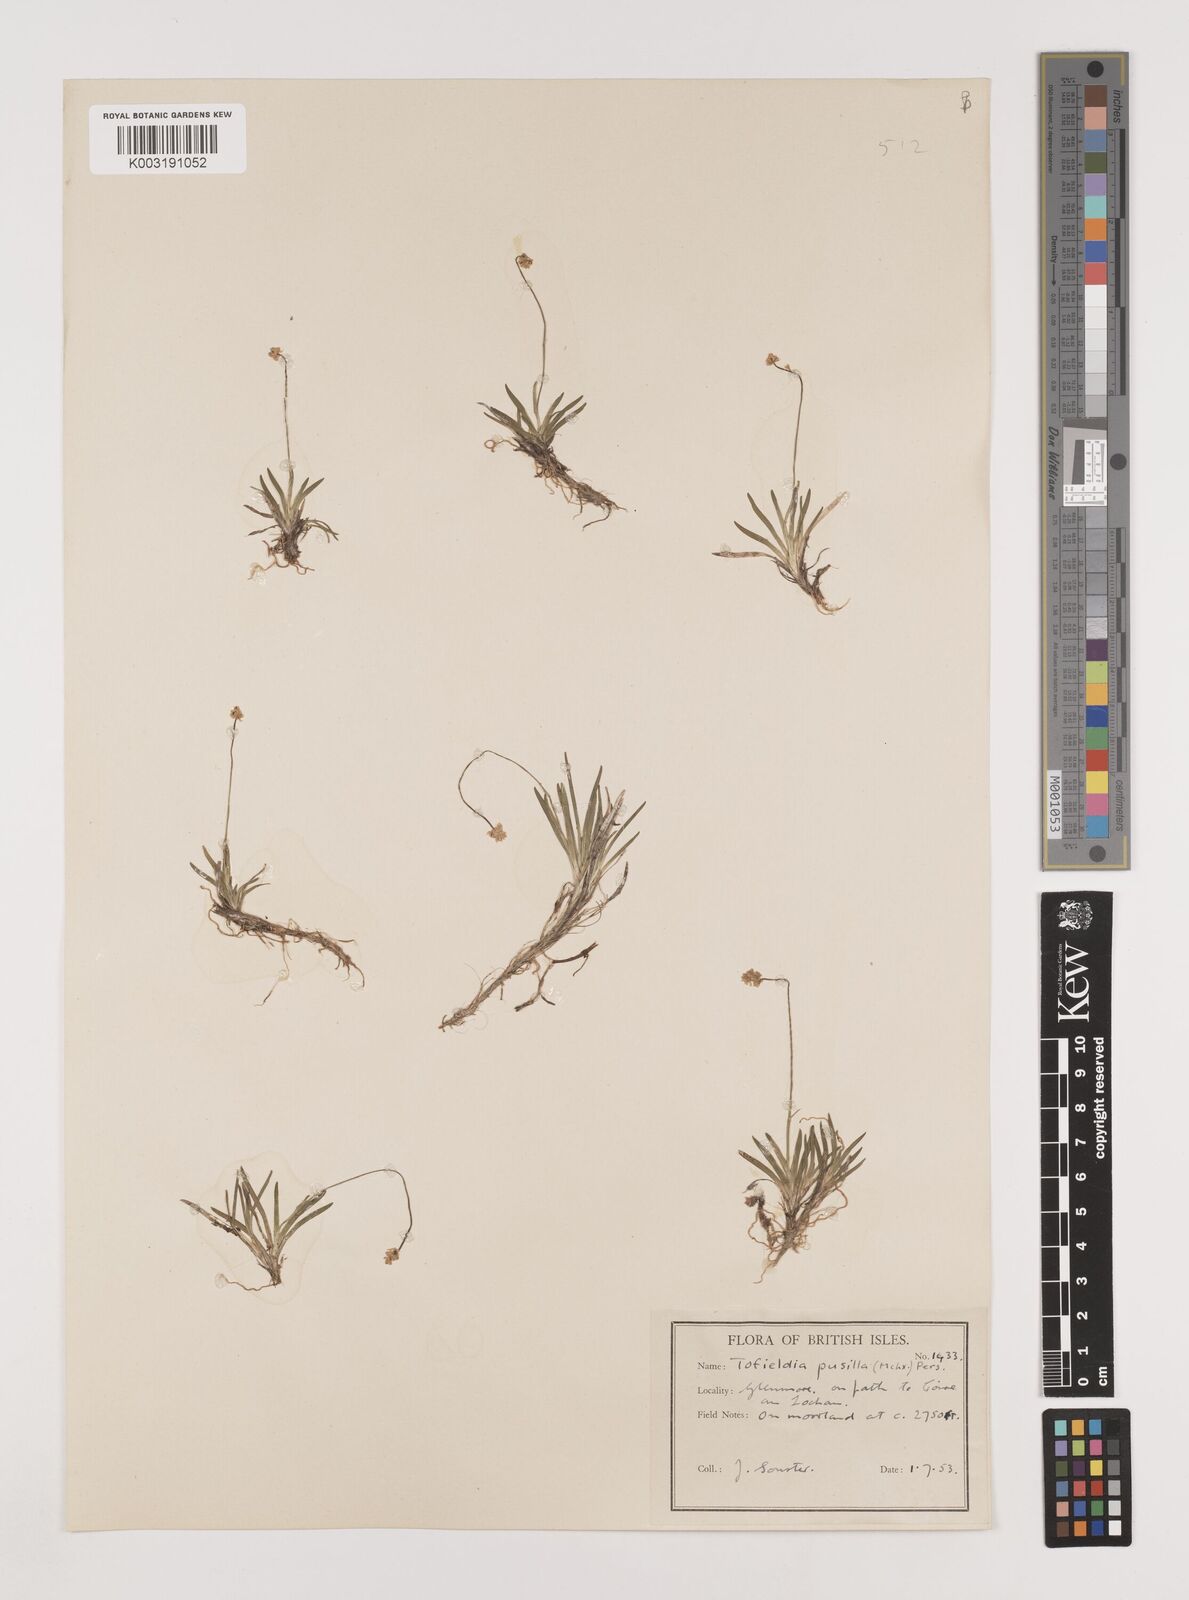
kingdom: Plantae
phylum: Tracheophyta
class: Liliopsida
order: Alismatales
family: Tofieldiaceae
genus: Tofieldia
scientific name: Tofieldia pusilla
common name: Scottish false asphodel
